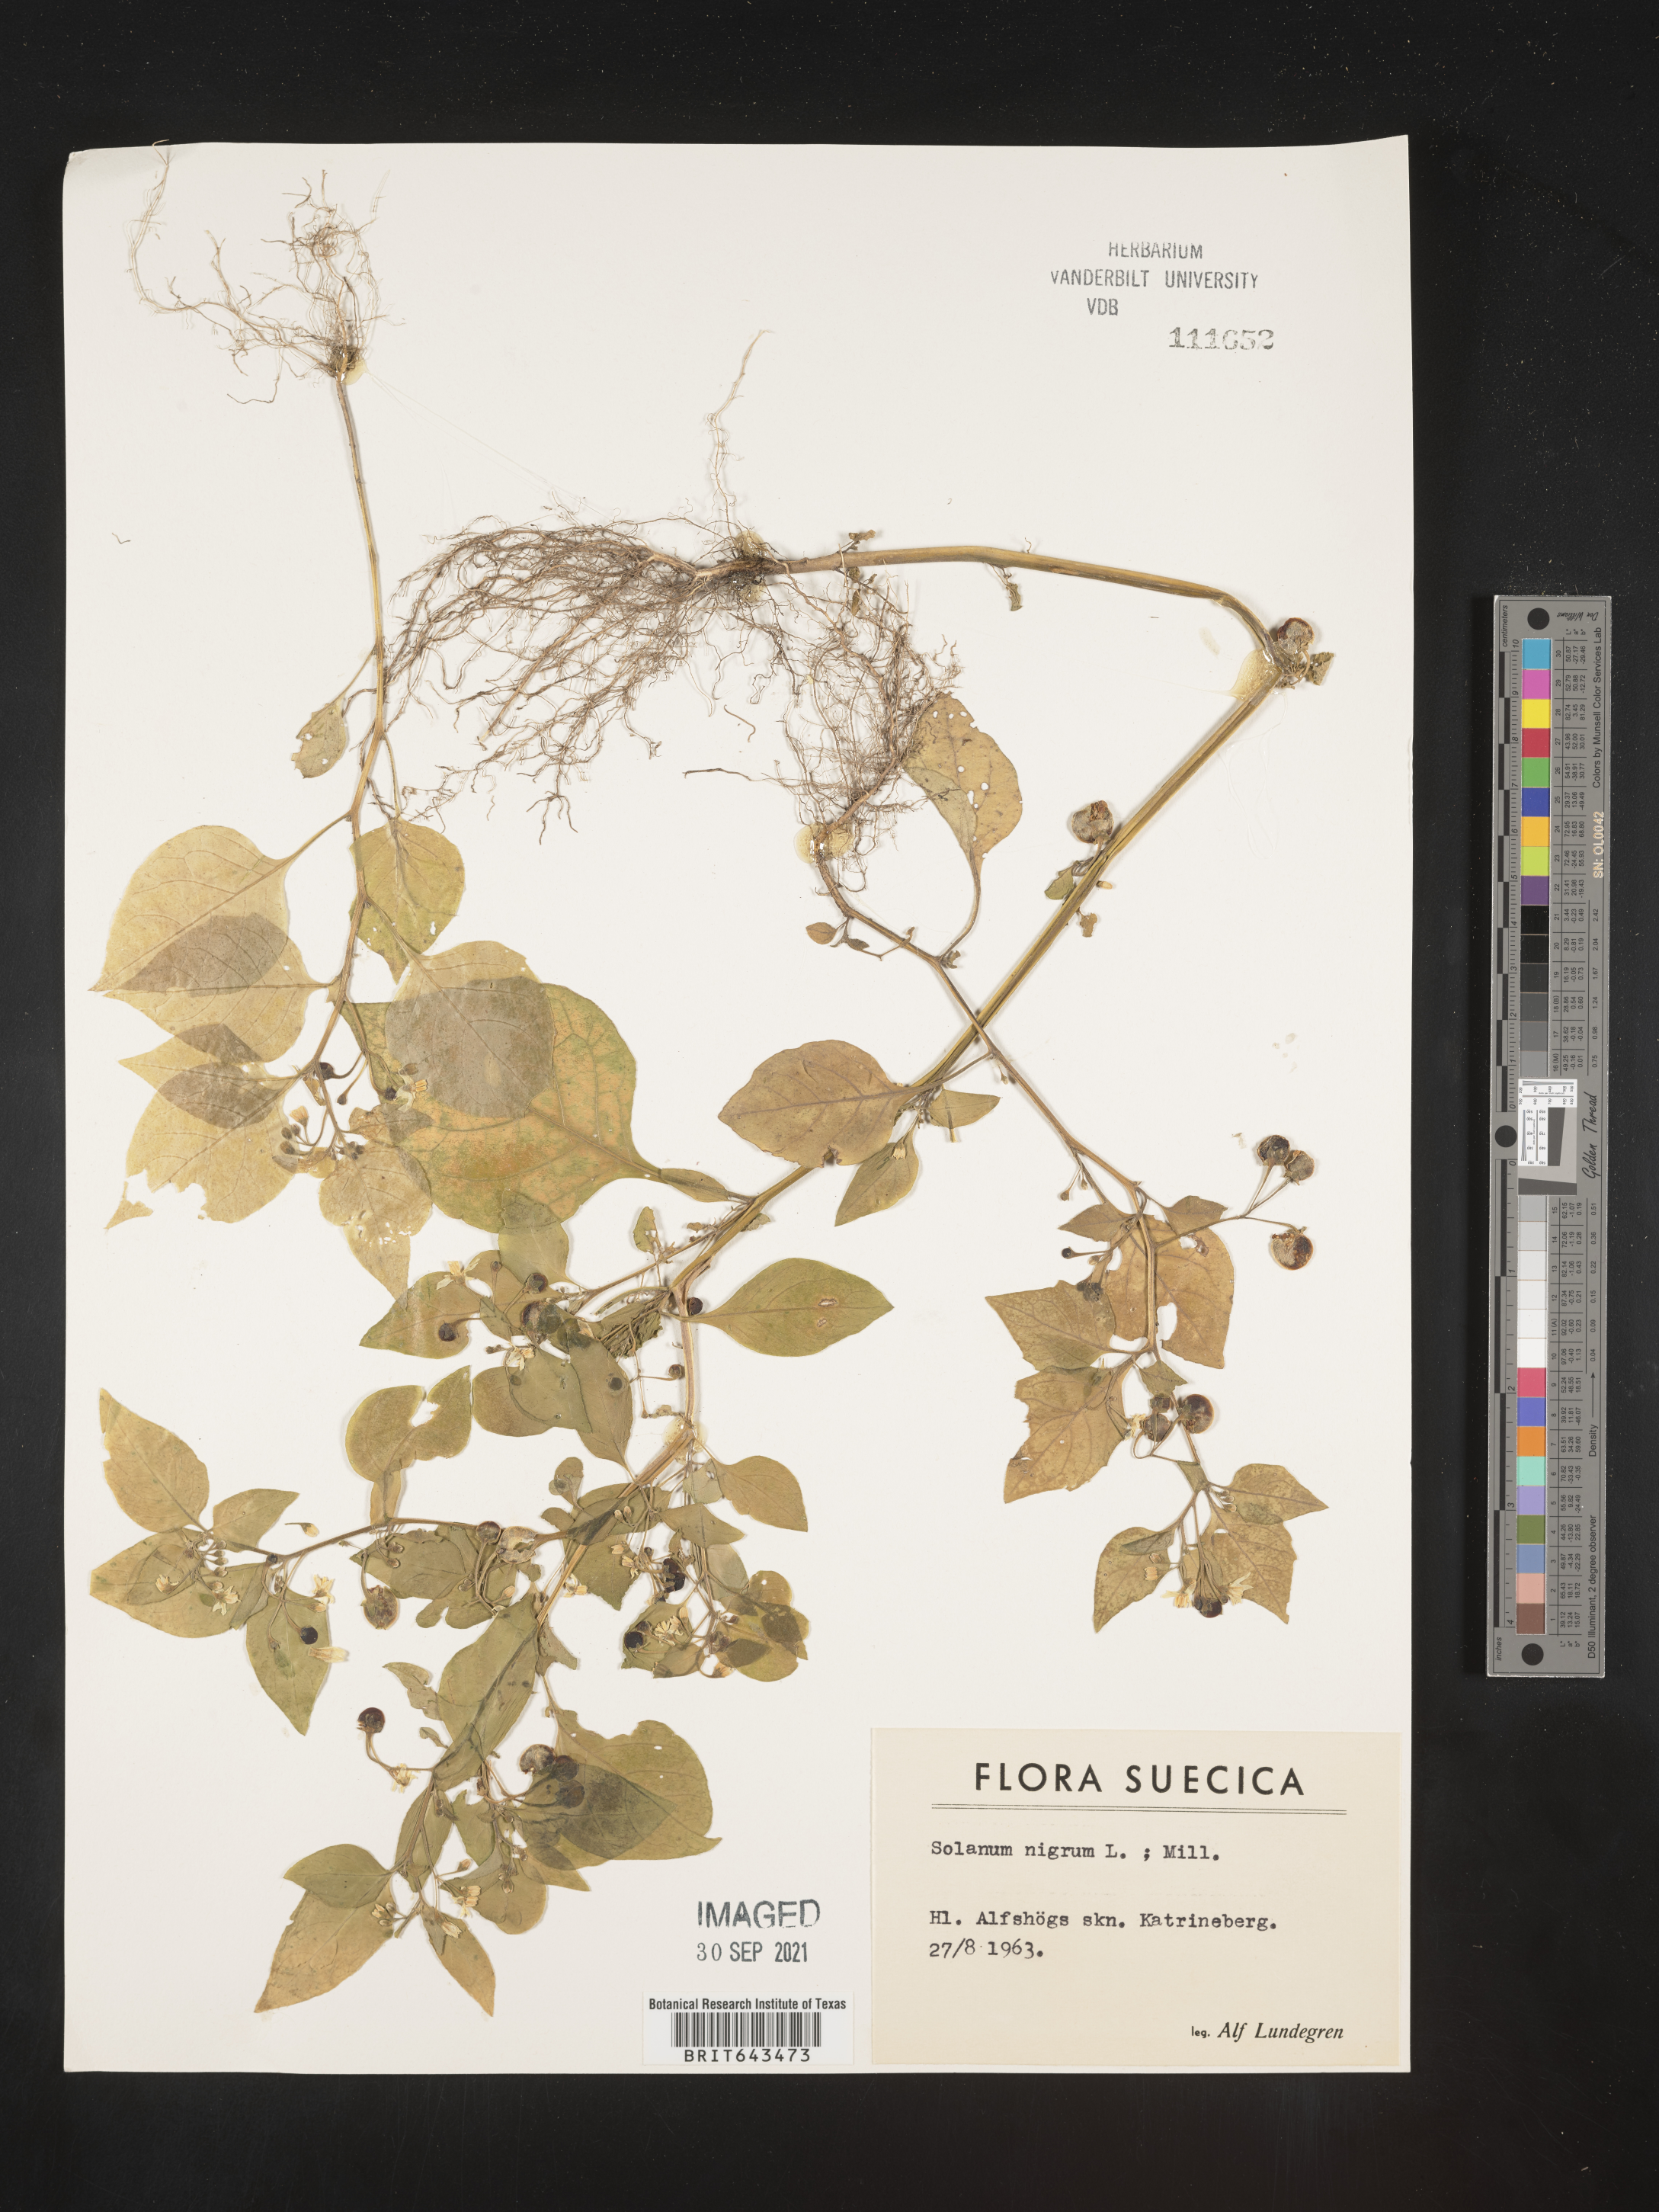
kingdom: Plantae
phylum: Tracheophyta
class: Magnoliopsida
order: Solanales
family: Solanaceae
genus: Solanum
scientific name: Solanum
